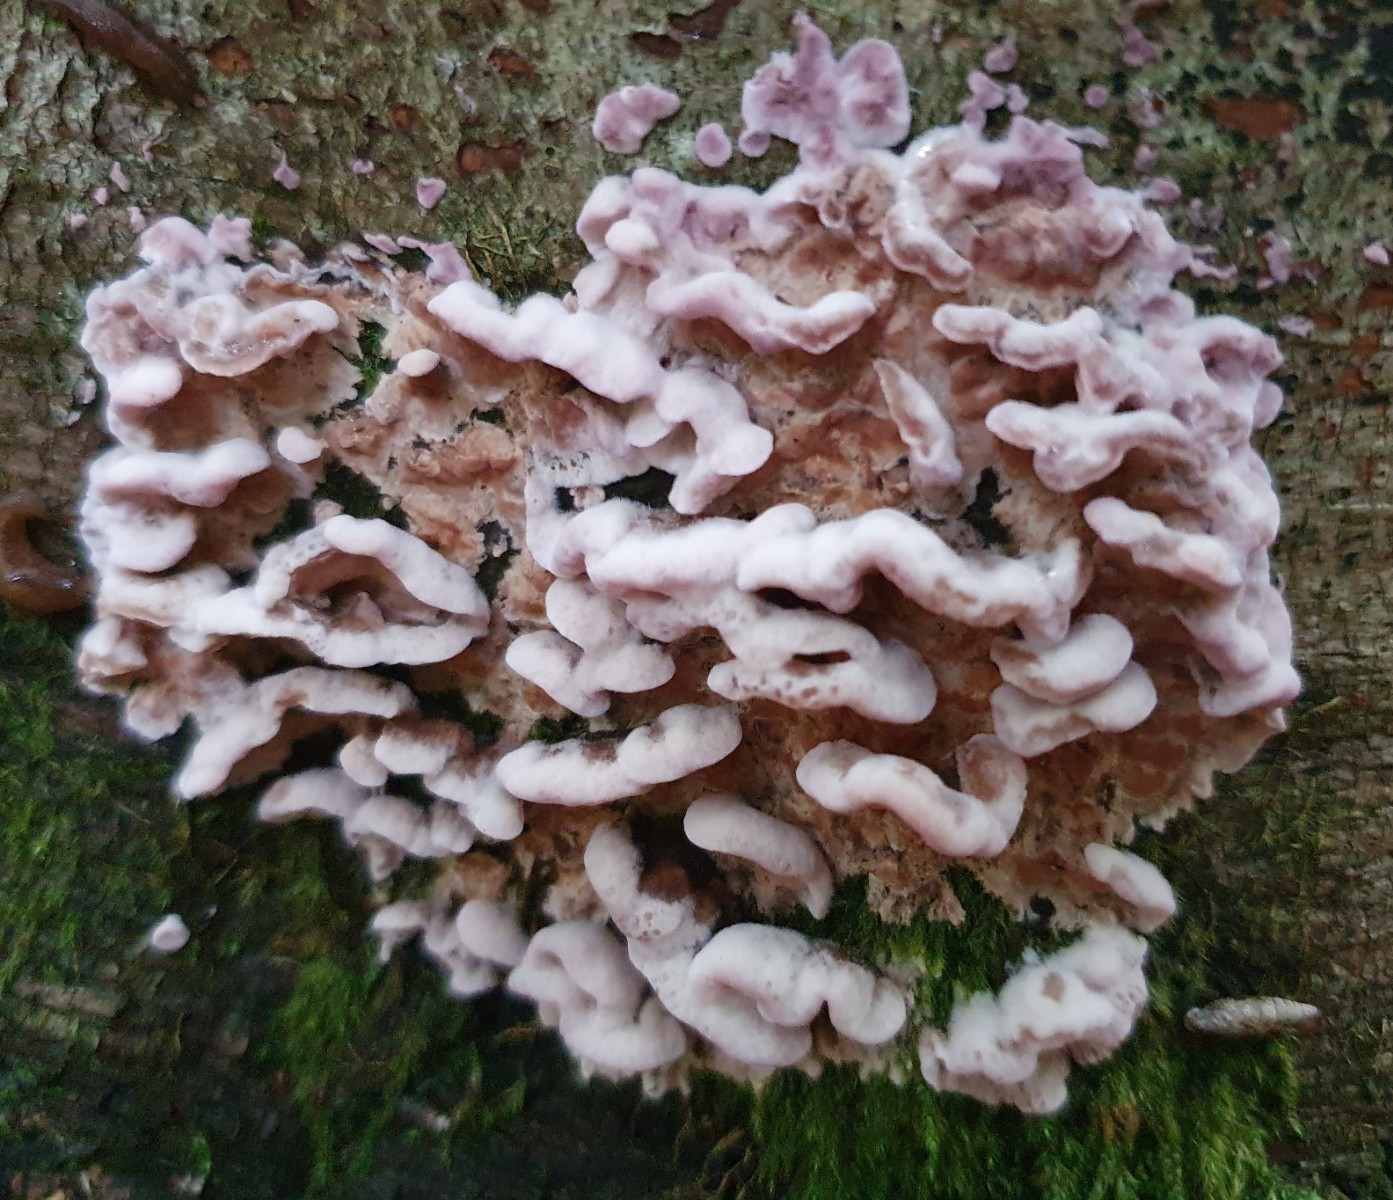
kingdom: Fungi
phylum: Basidiomycota
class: Agaricomycetes
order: Agaricales
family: Cyphellaceae
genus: Chondrostereum
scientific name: Chondrostereum purpureum
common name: purpurlædersvamp
